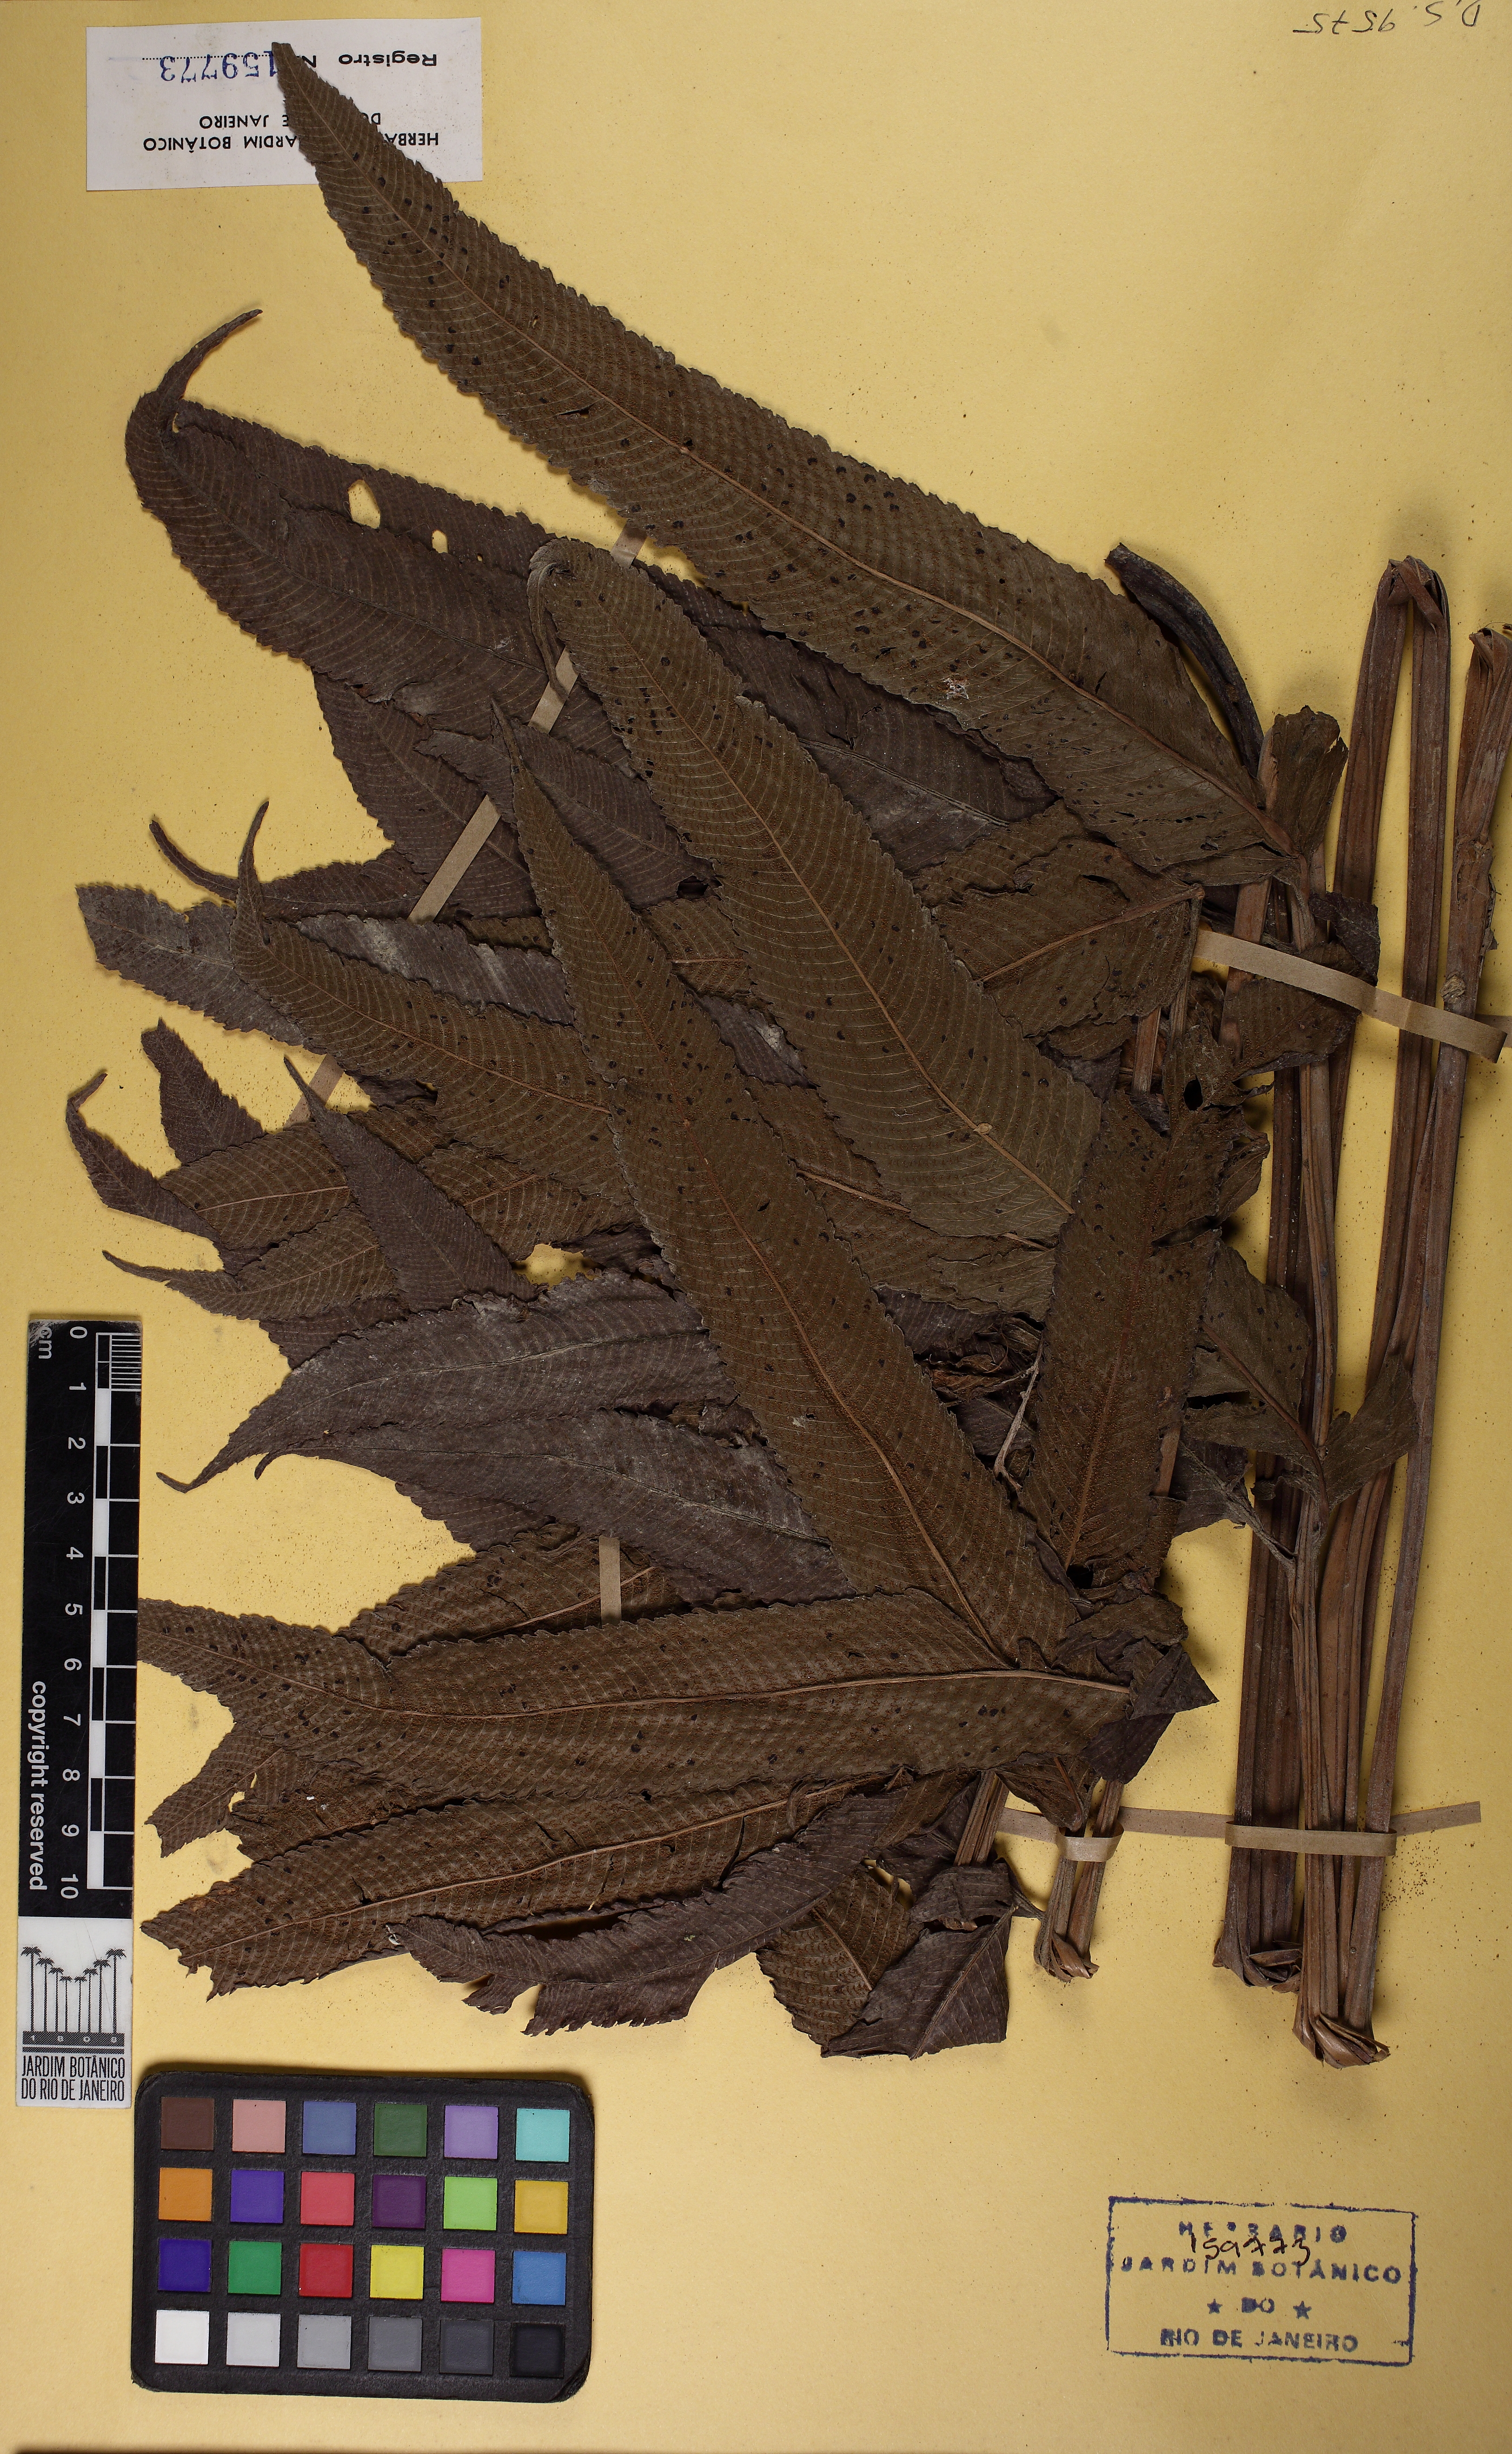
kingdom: Plantae
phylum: Tracheophyta
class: Polypodiopsida
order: Polypodiales
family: Thelypteridaceae
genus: Meniscium
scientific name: Meniscium serratum
